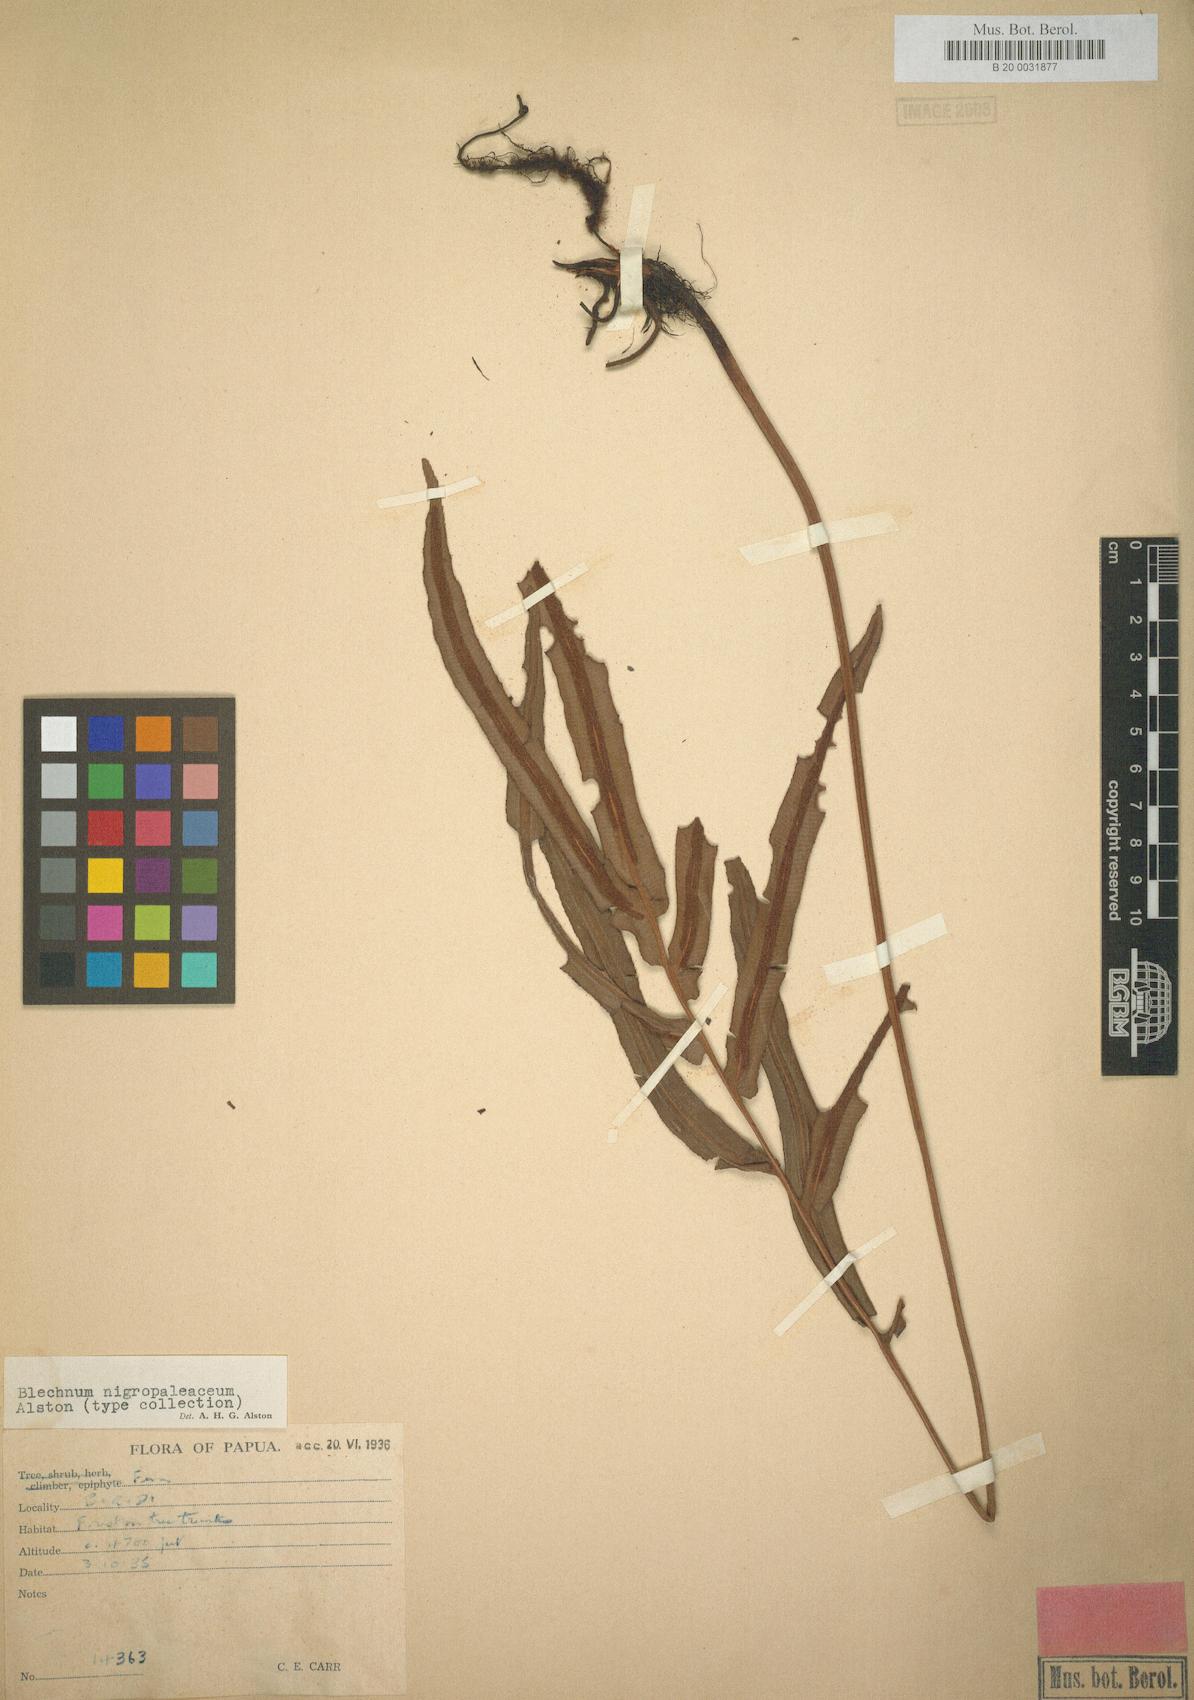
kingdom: Plantae
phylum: Tracheophyta
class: Polypodiopsida
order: Polypodiales
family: Blechnaceae
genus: Oceaniopteris
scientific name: Oceaniopteris whelanii
